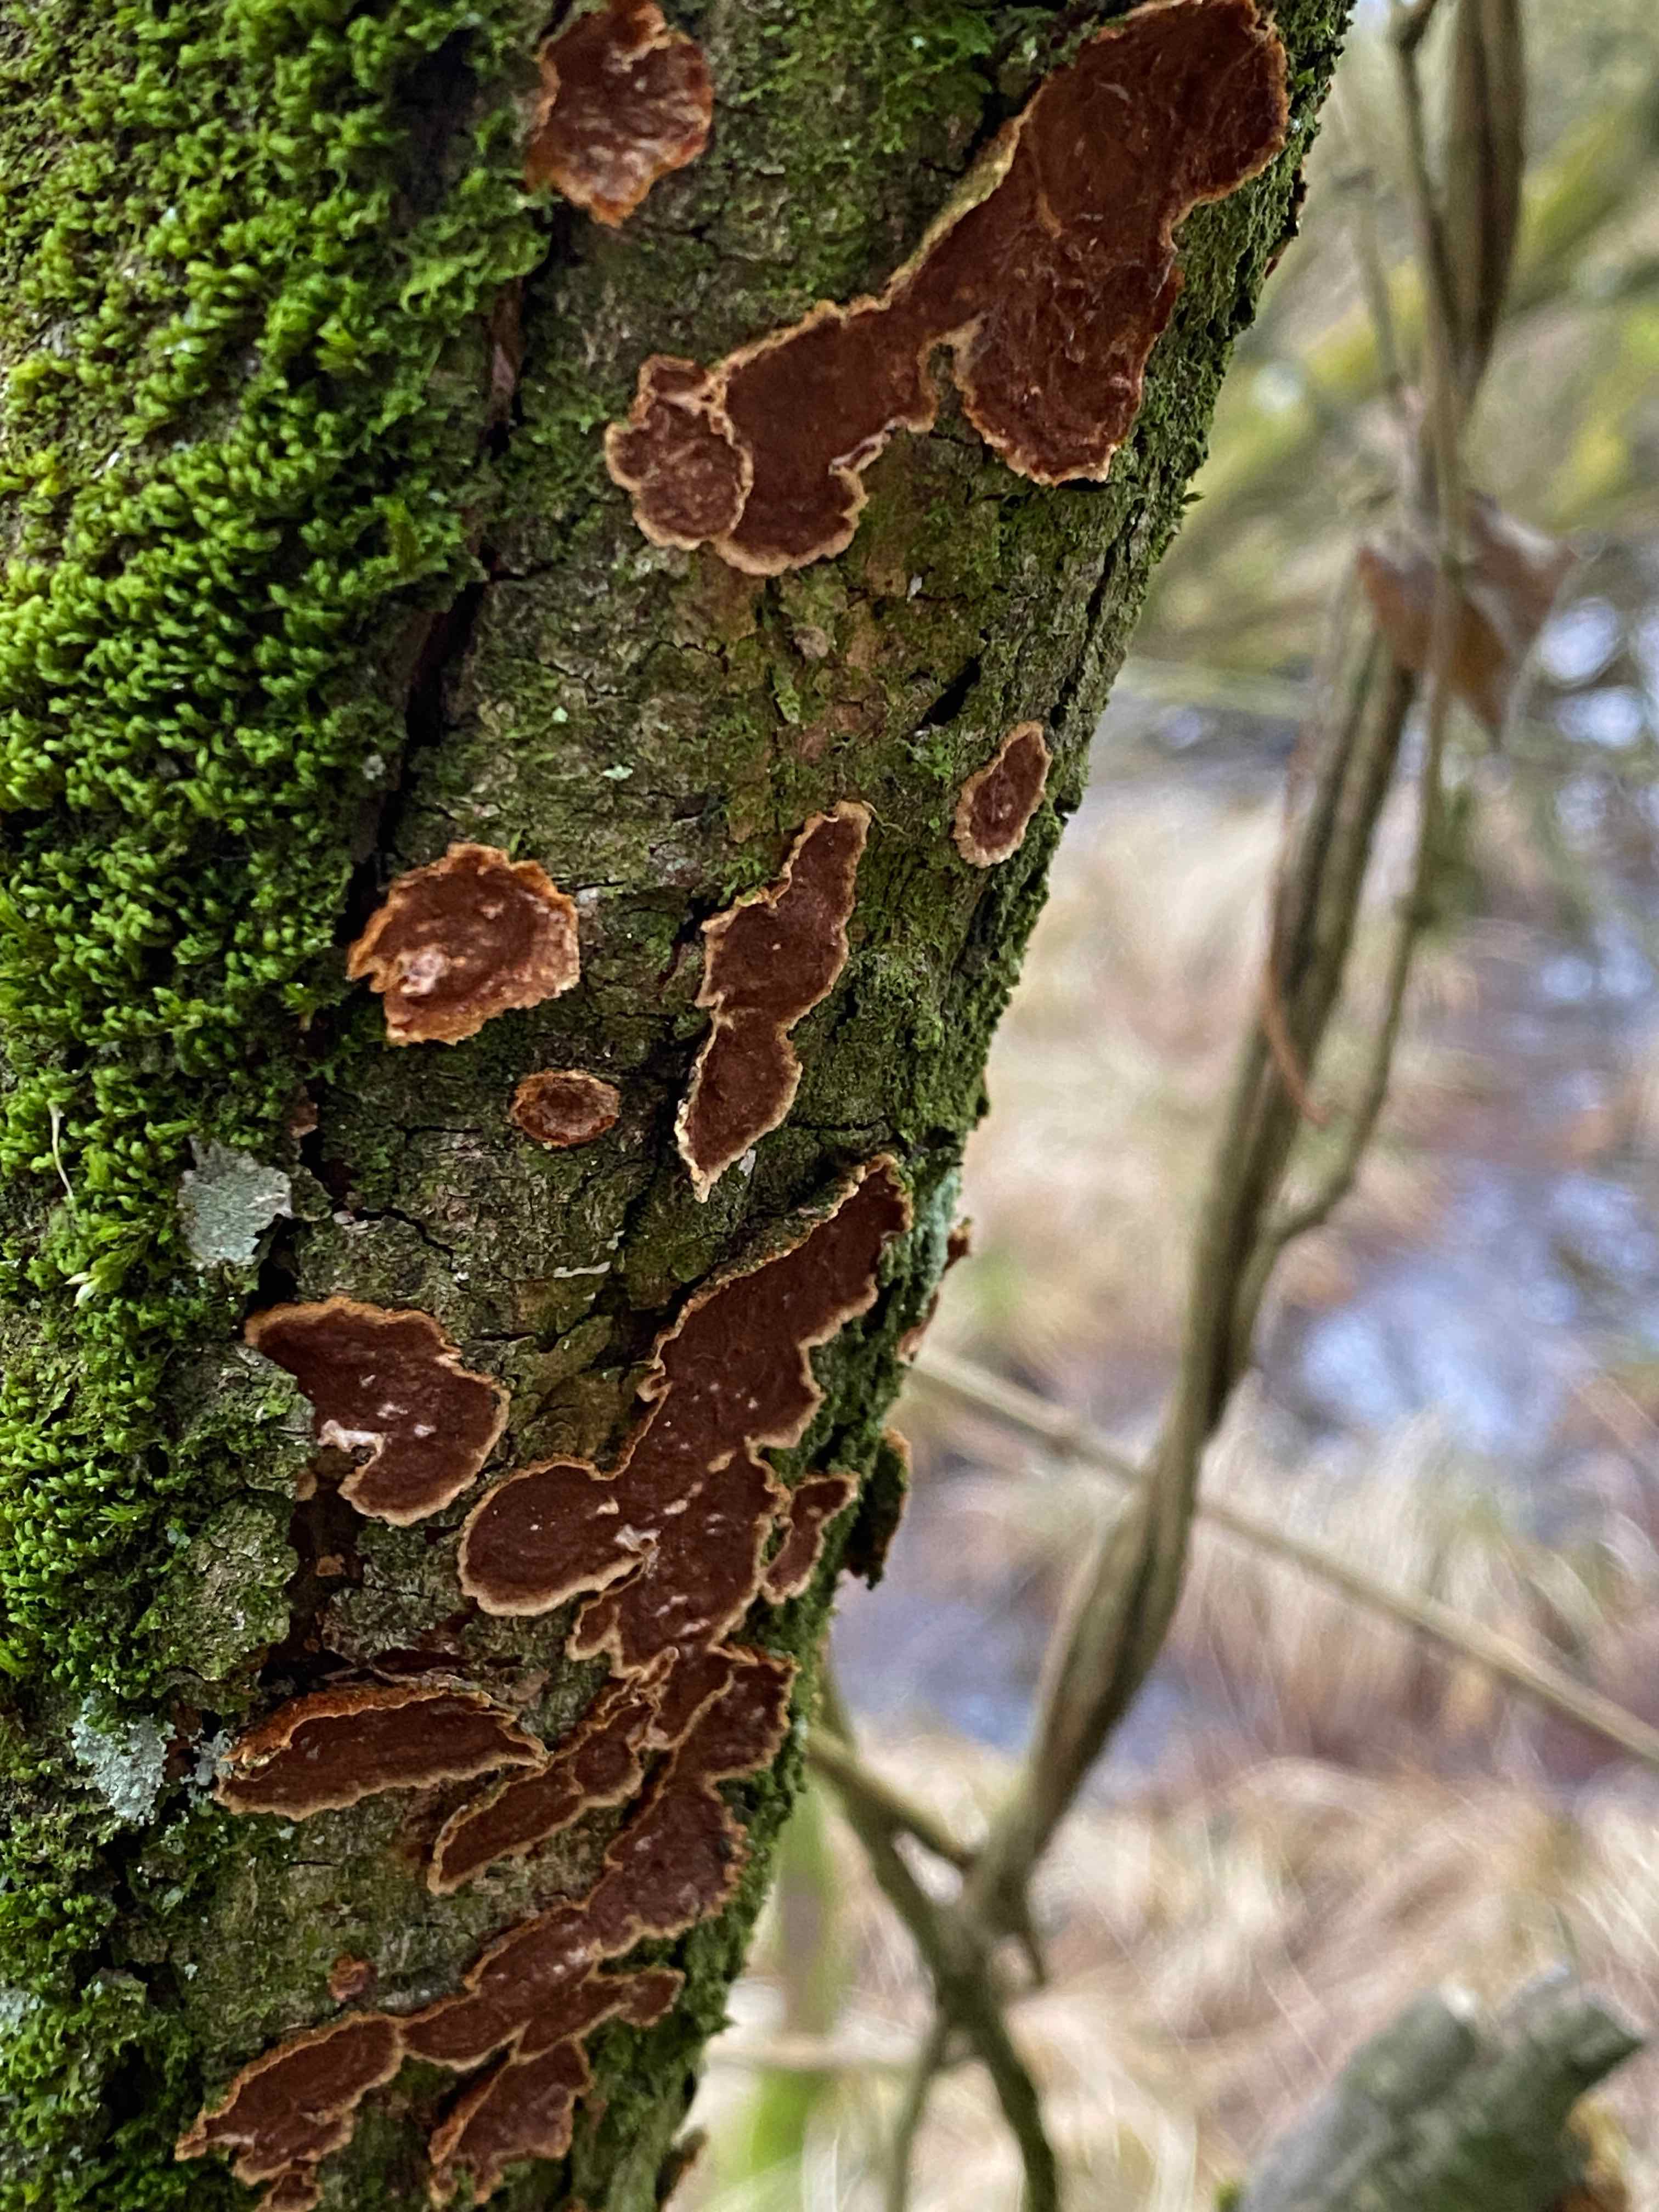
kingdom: Fungi
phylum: Basidiomycota
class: Agaricomycetes
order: Agaricales
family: Cyphellaceae
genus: Chondrostereum
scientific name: Chondrostereum purpureum
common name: purpurlædersvamp
